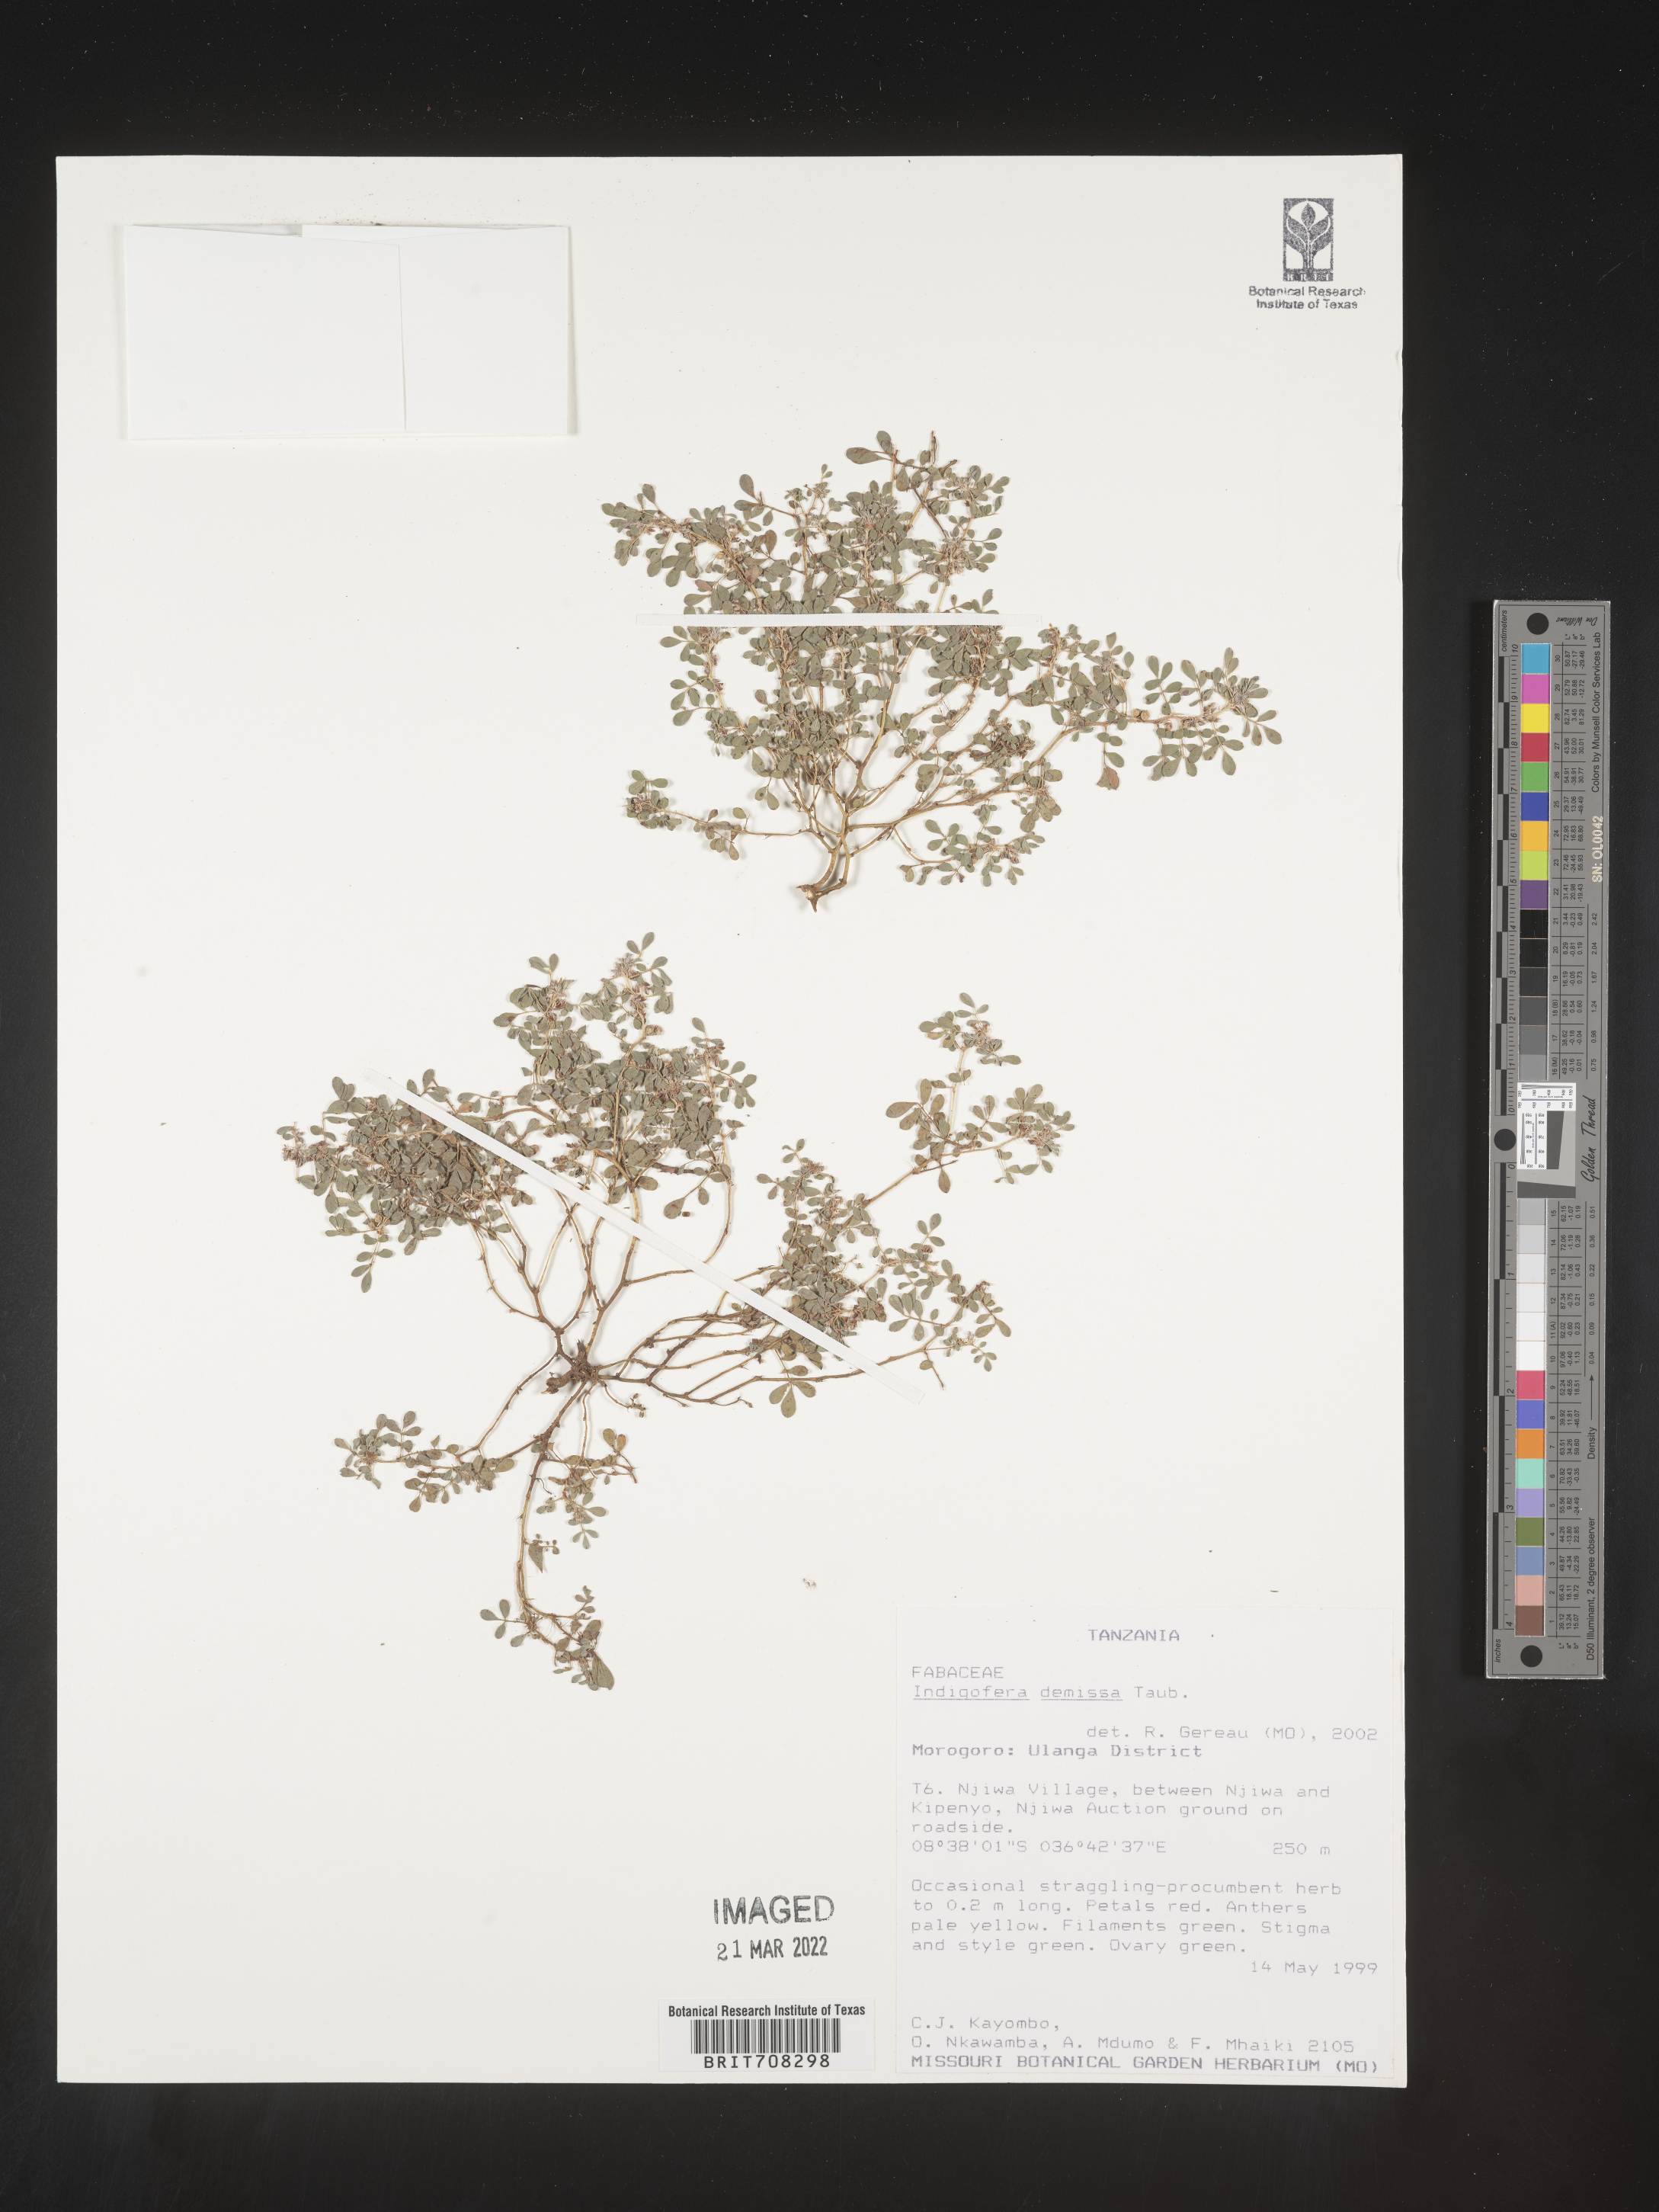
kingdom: Plantae
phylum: Tracheophyta
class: Magnoliopsida
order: Fabales
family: Fabaceae
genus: Indigofera
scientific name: Indigofera
